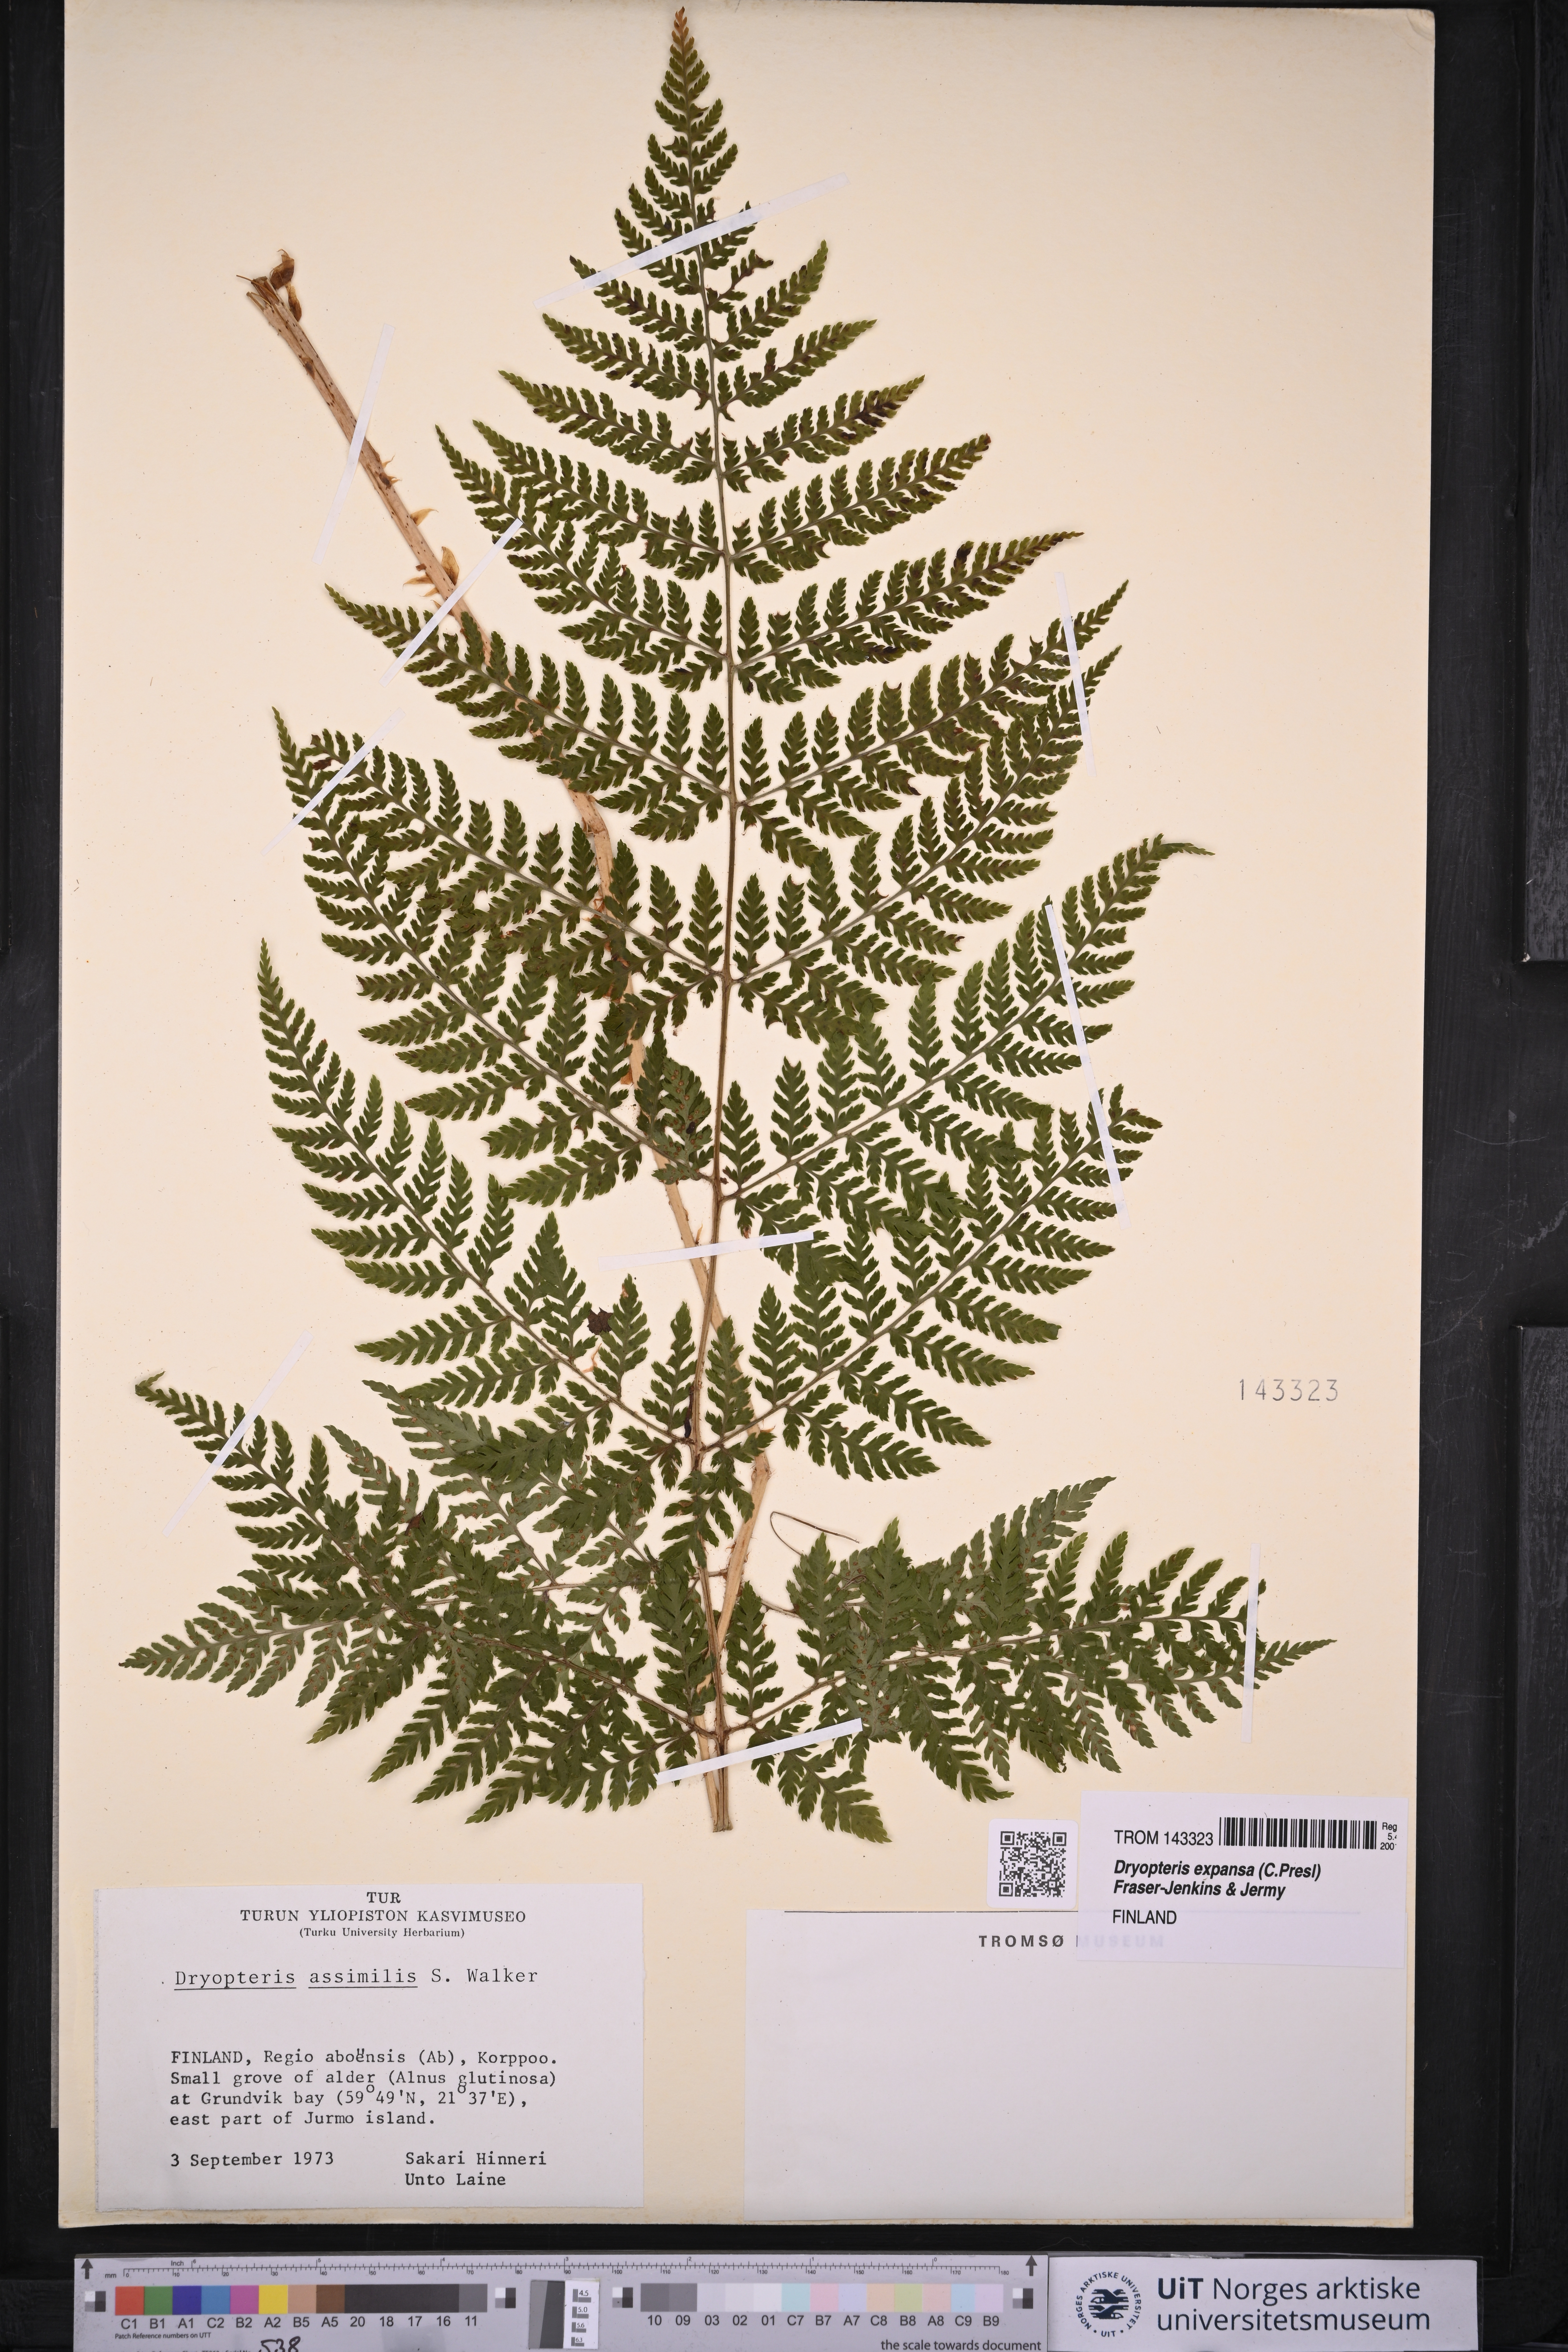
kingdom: Plantae
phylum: Tracheophyta
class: Polypodiopsida
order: Polypodiales
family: Dryopteridaceae
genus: Dryopteris
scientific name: Dryopteris expansa
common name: Northern buckler fern
